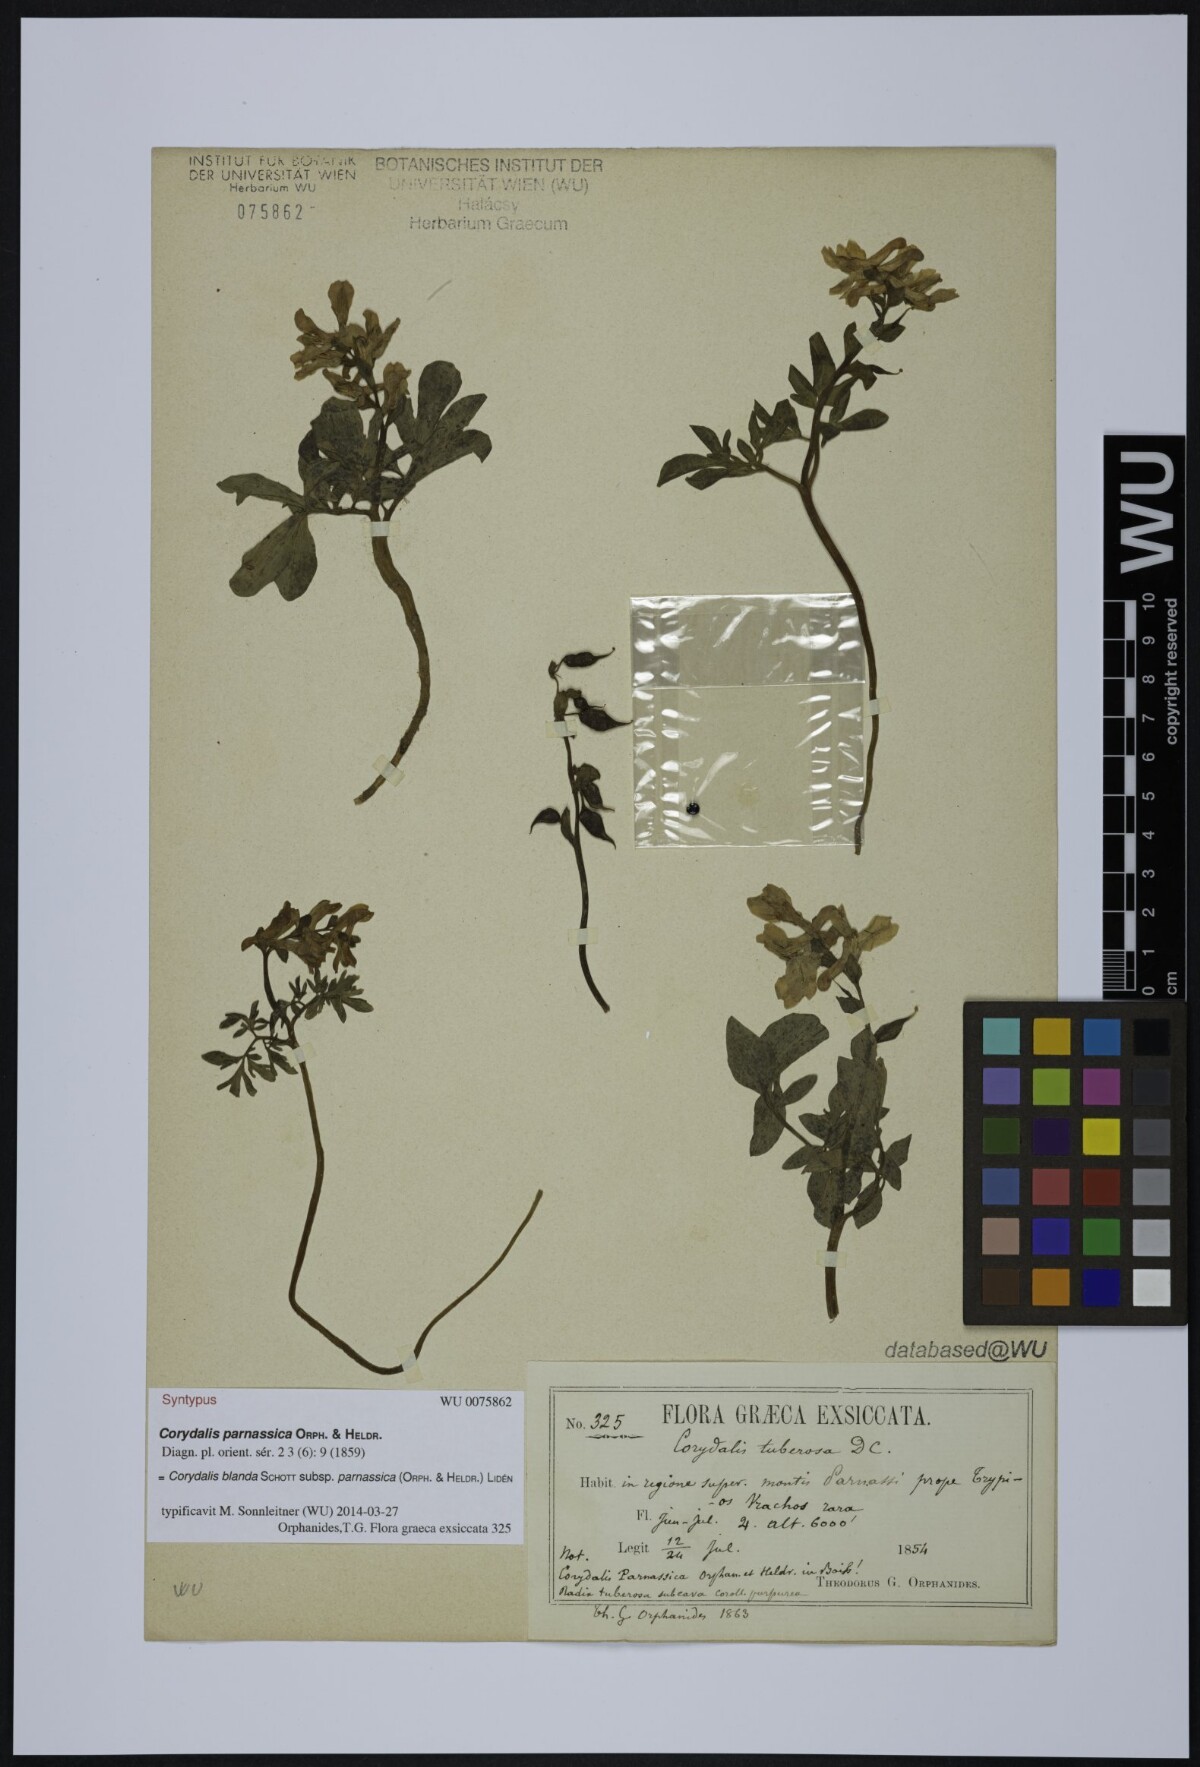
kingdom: Plantae
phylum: Tracheophyta
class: Magnoliopsida
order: Ranunculales
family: Papaveraceae
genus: Corydalis
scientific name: Corydalis blanda
